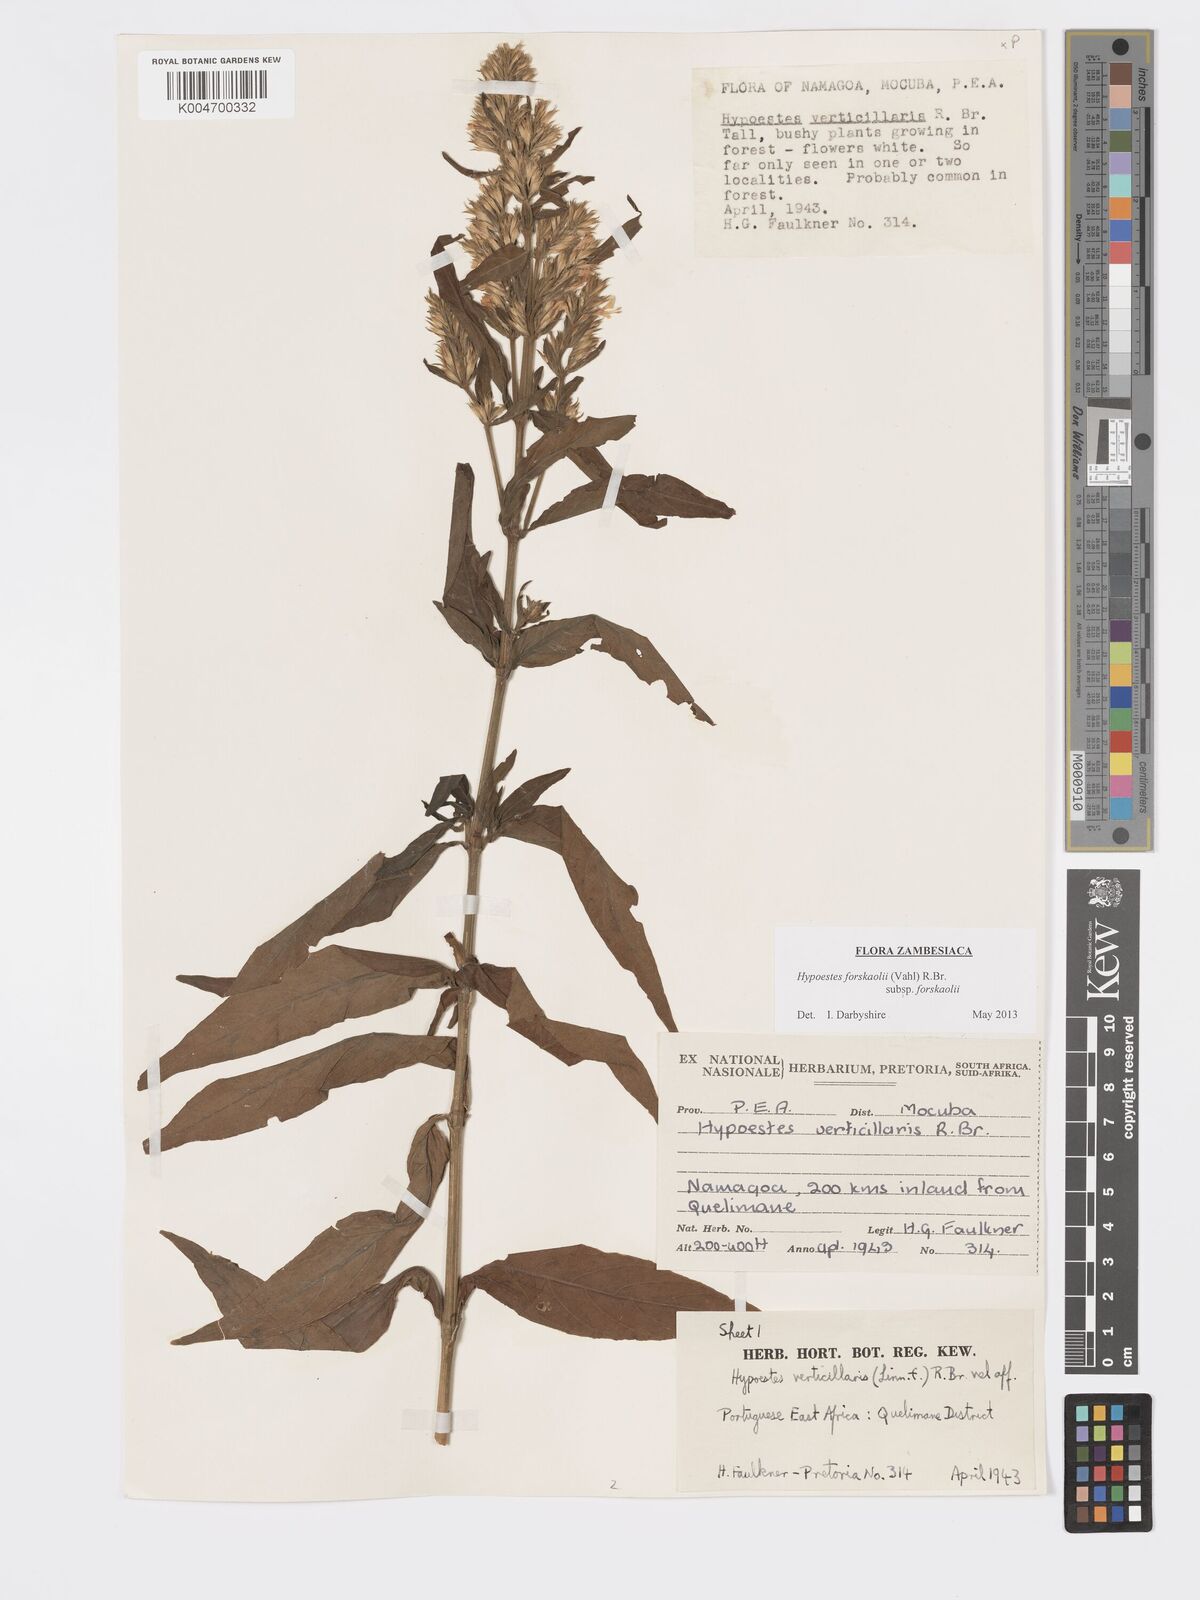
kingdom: Plantae
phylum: Tracheophyta
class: Magnoliopsida
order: Lamiales
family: Acanthaceae
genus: Hypoestes
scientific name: Hypoestes forskaolii
